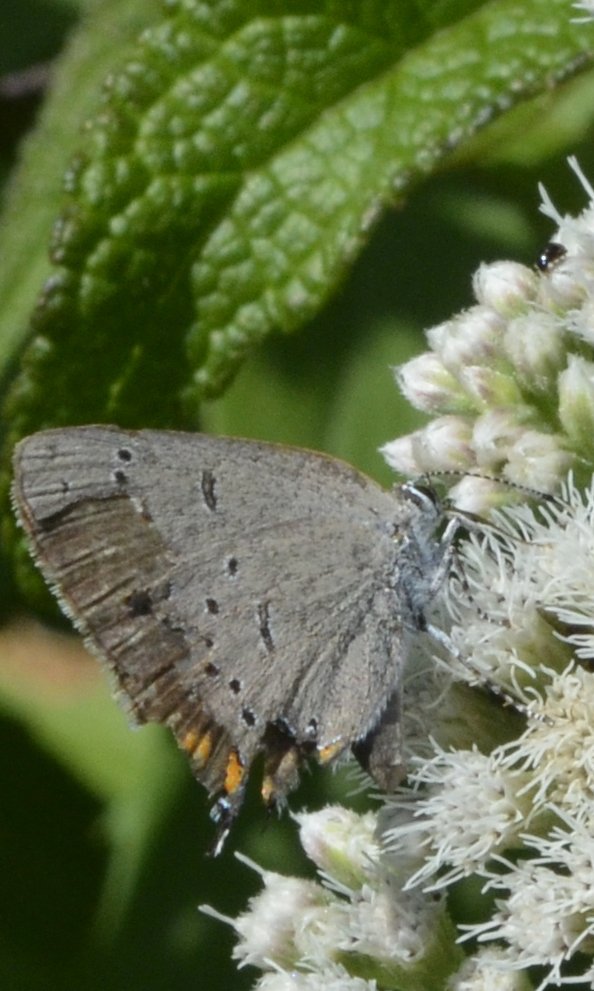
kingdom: Animalia
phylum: Arthropoda
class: Insecta
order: Lepidoptera
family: Lycaenidae
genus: Strymon
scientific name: Strymon acadica
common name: Acadian Hairstreak
